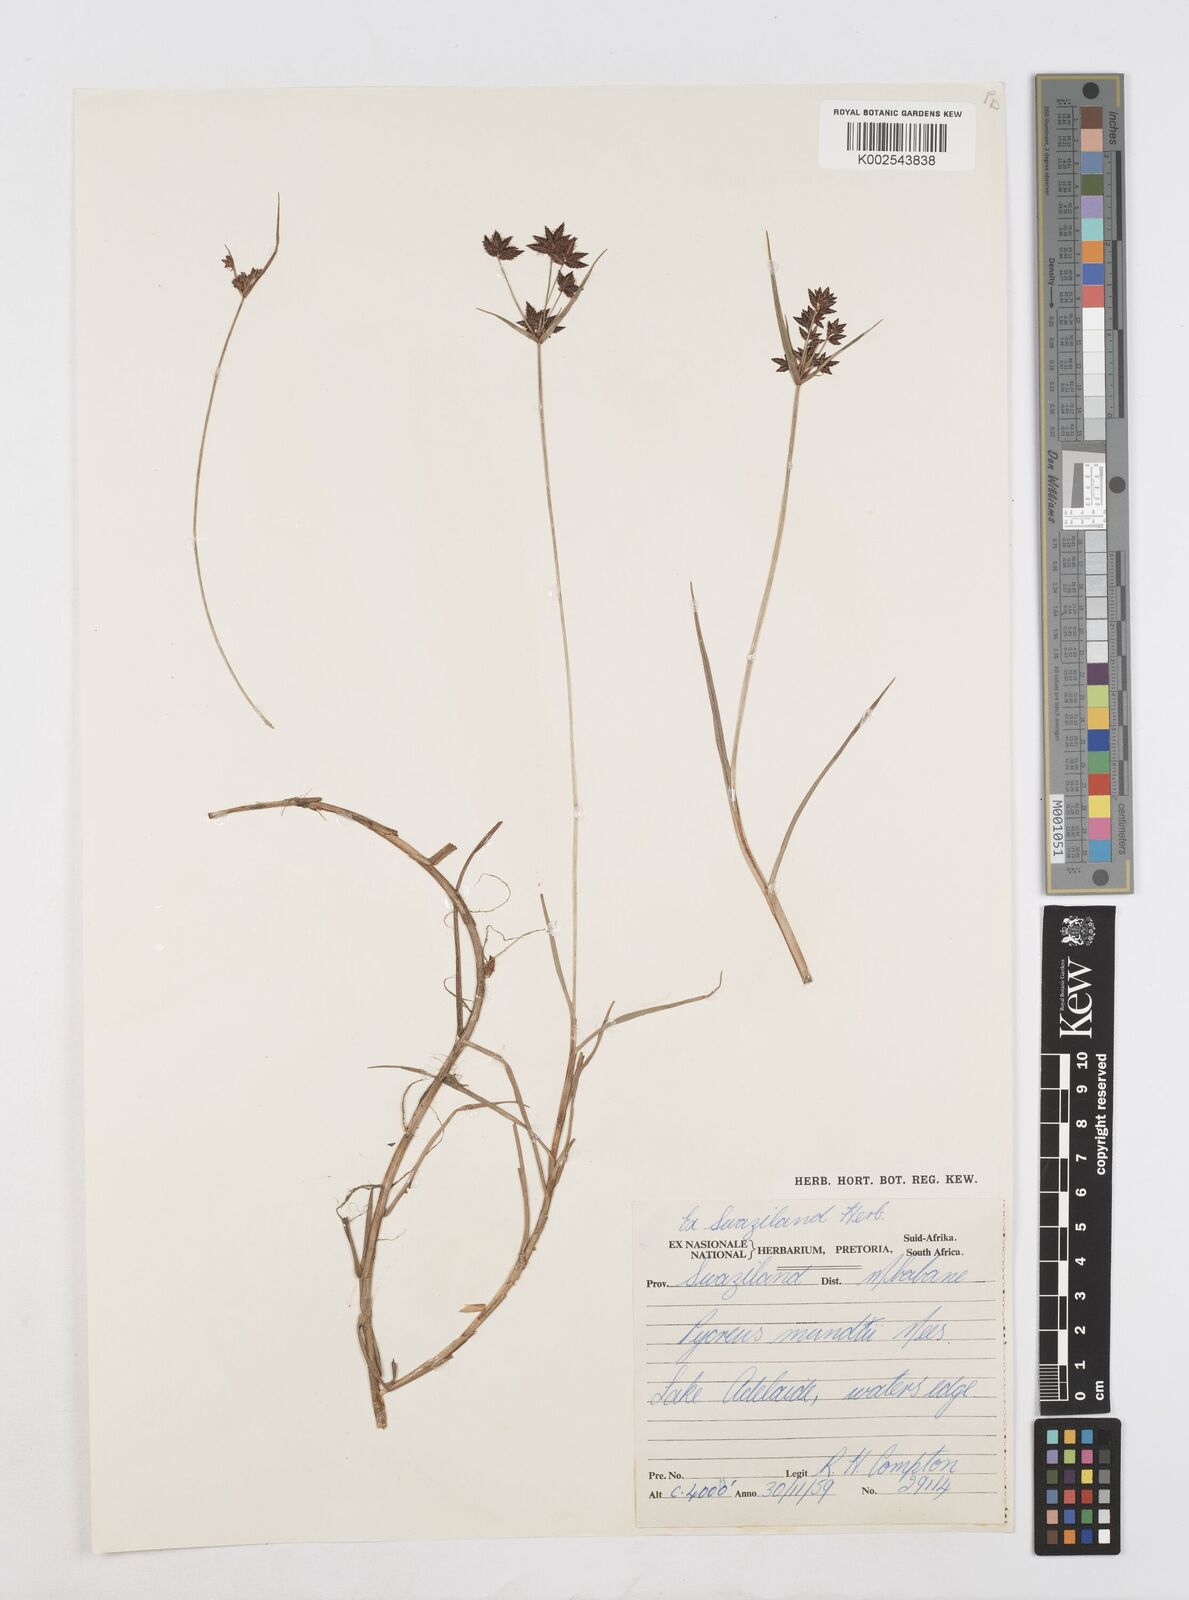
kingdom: Plantae
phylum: Tracheophyta
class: Liliopsida
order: Poales
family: Cyperaceae
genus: Cyperus
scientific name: Cyperus mundii
